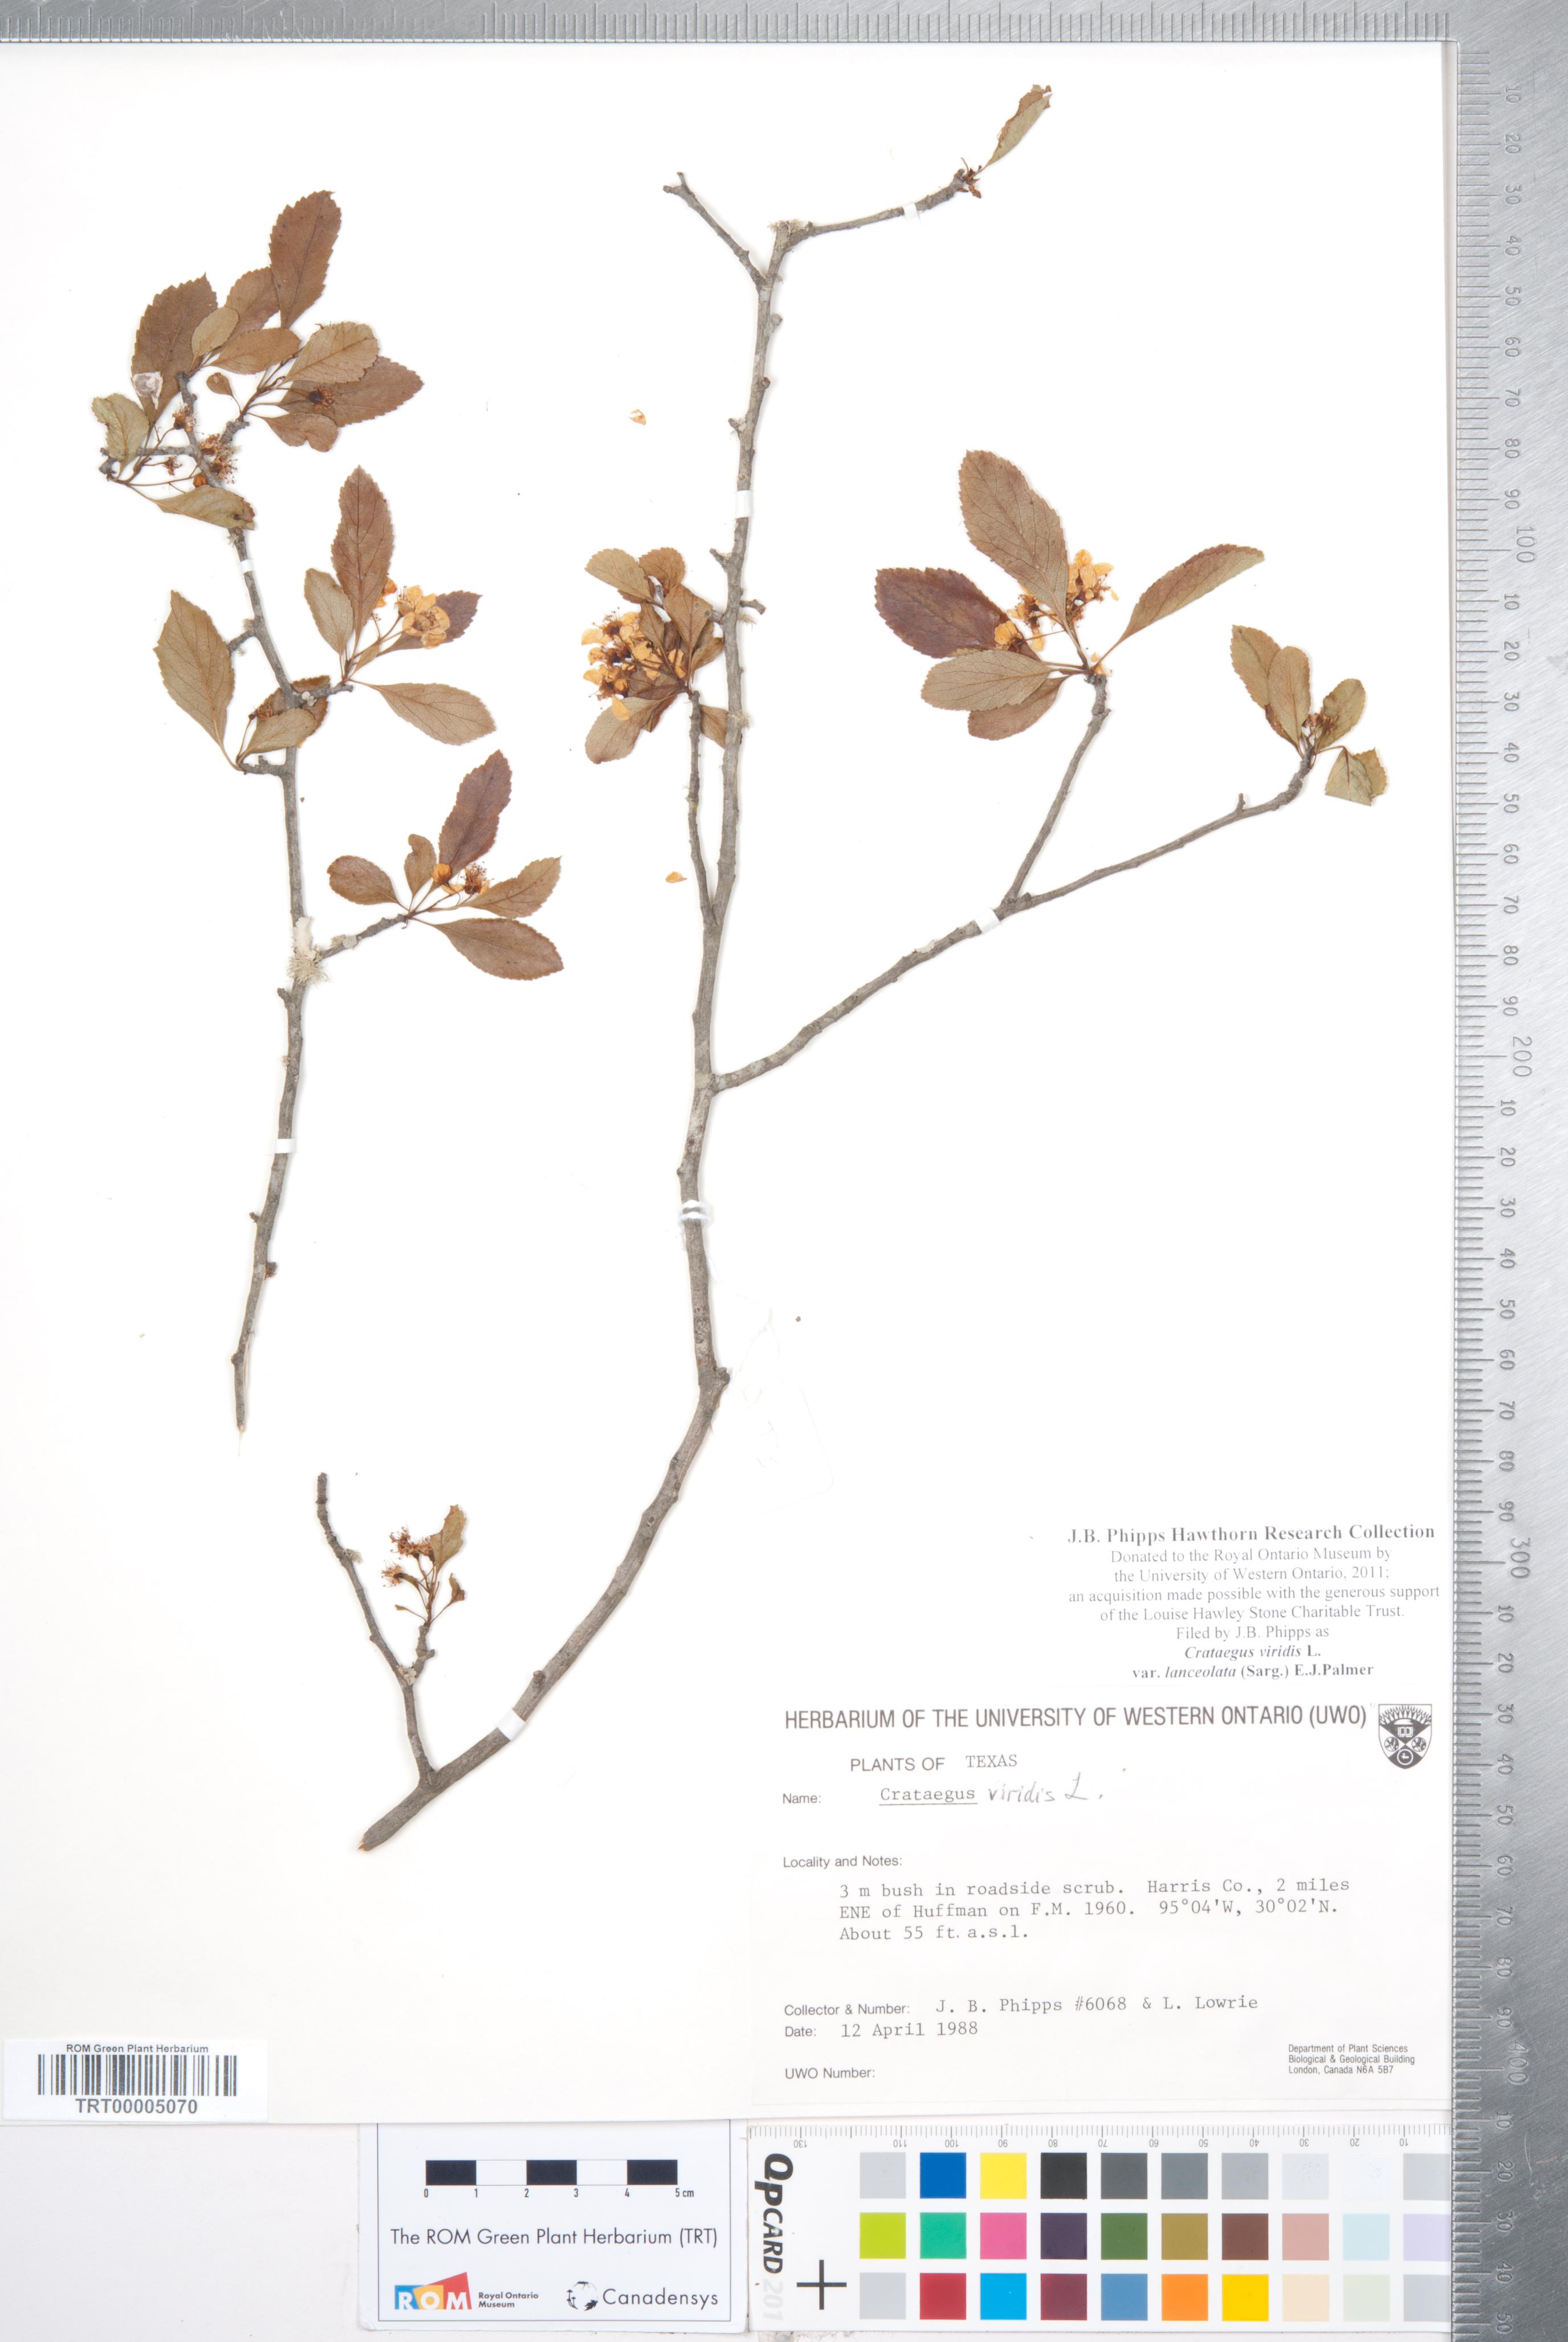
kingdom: Plantae
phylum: Tracheophyta
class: Magnoliopsida
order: Rosales
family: Rosaceae
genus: Crataegus
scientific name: Crataegus viridis
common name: Southernthorn
